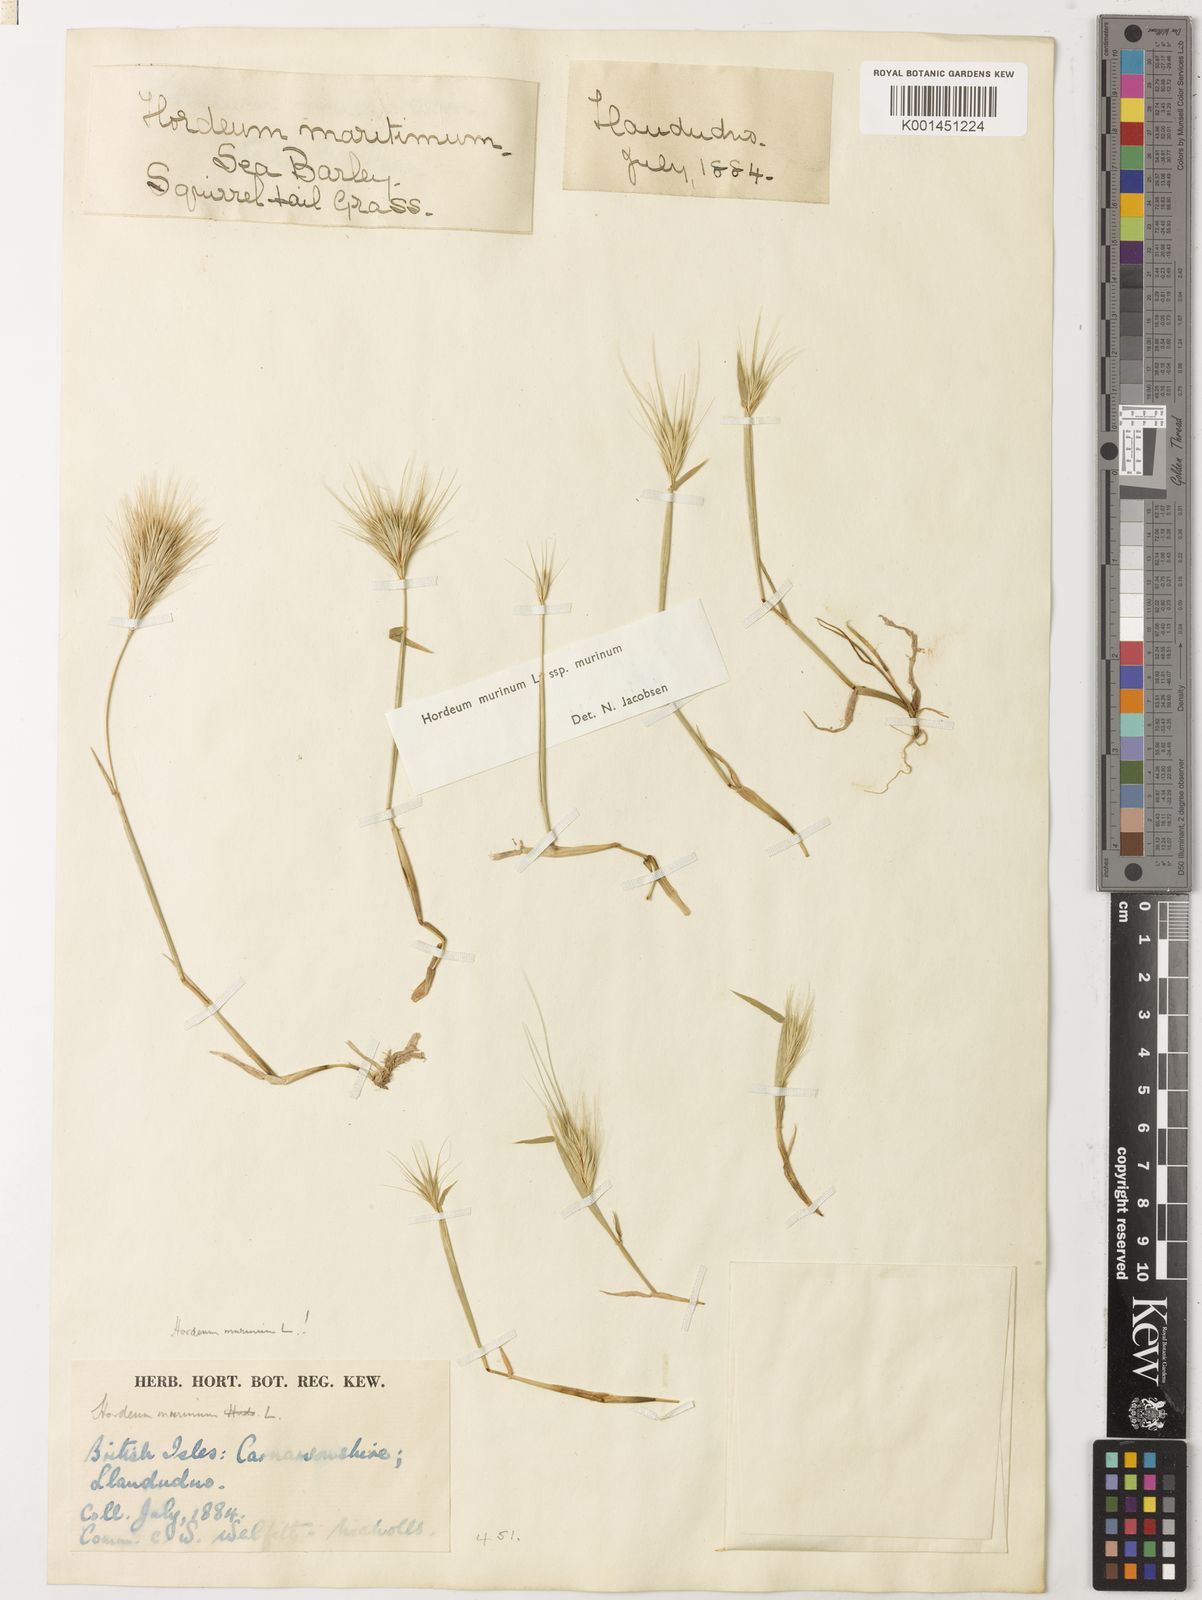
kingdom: Plantae
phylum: Tracheophyta
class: Liliopsida
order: Poales
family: Poaceae
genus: Hordeum
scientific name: Hordeum murinum
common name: Wall barley
